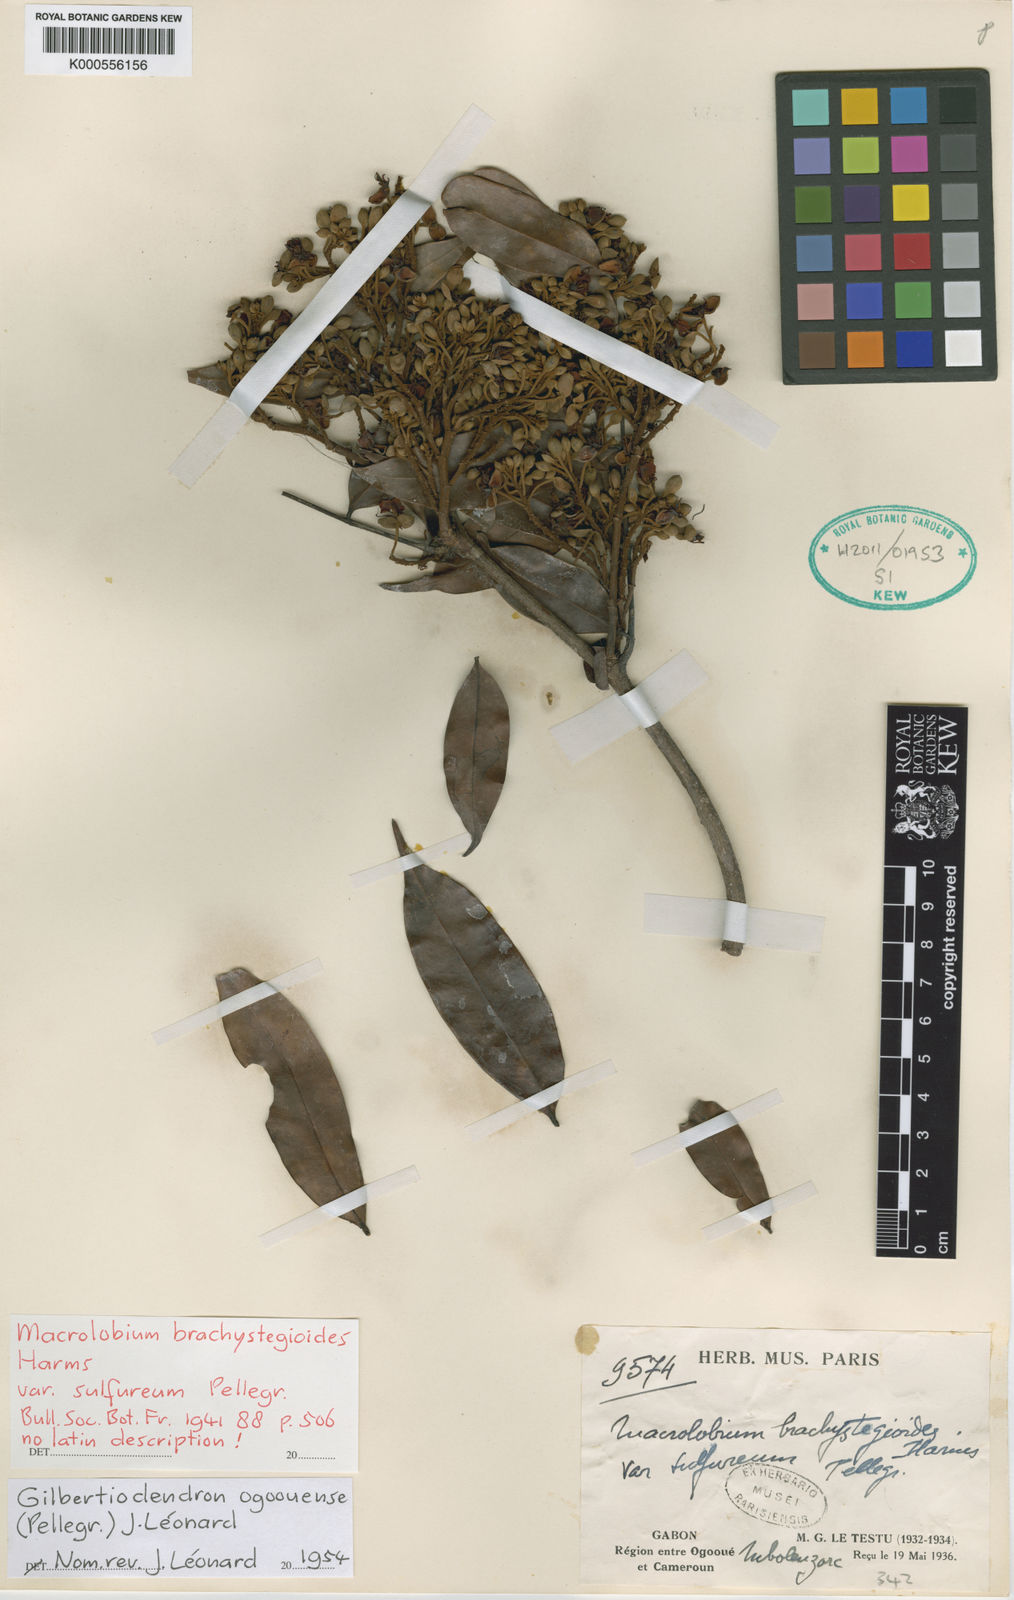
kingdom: Plantae
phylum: Tracheophyta
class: Magnoliopsida
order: Fabales
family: Fabaceae
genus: Gilbertiodendron
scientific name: Gilbertiodendron ogoouense
